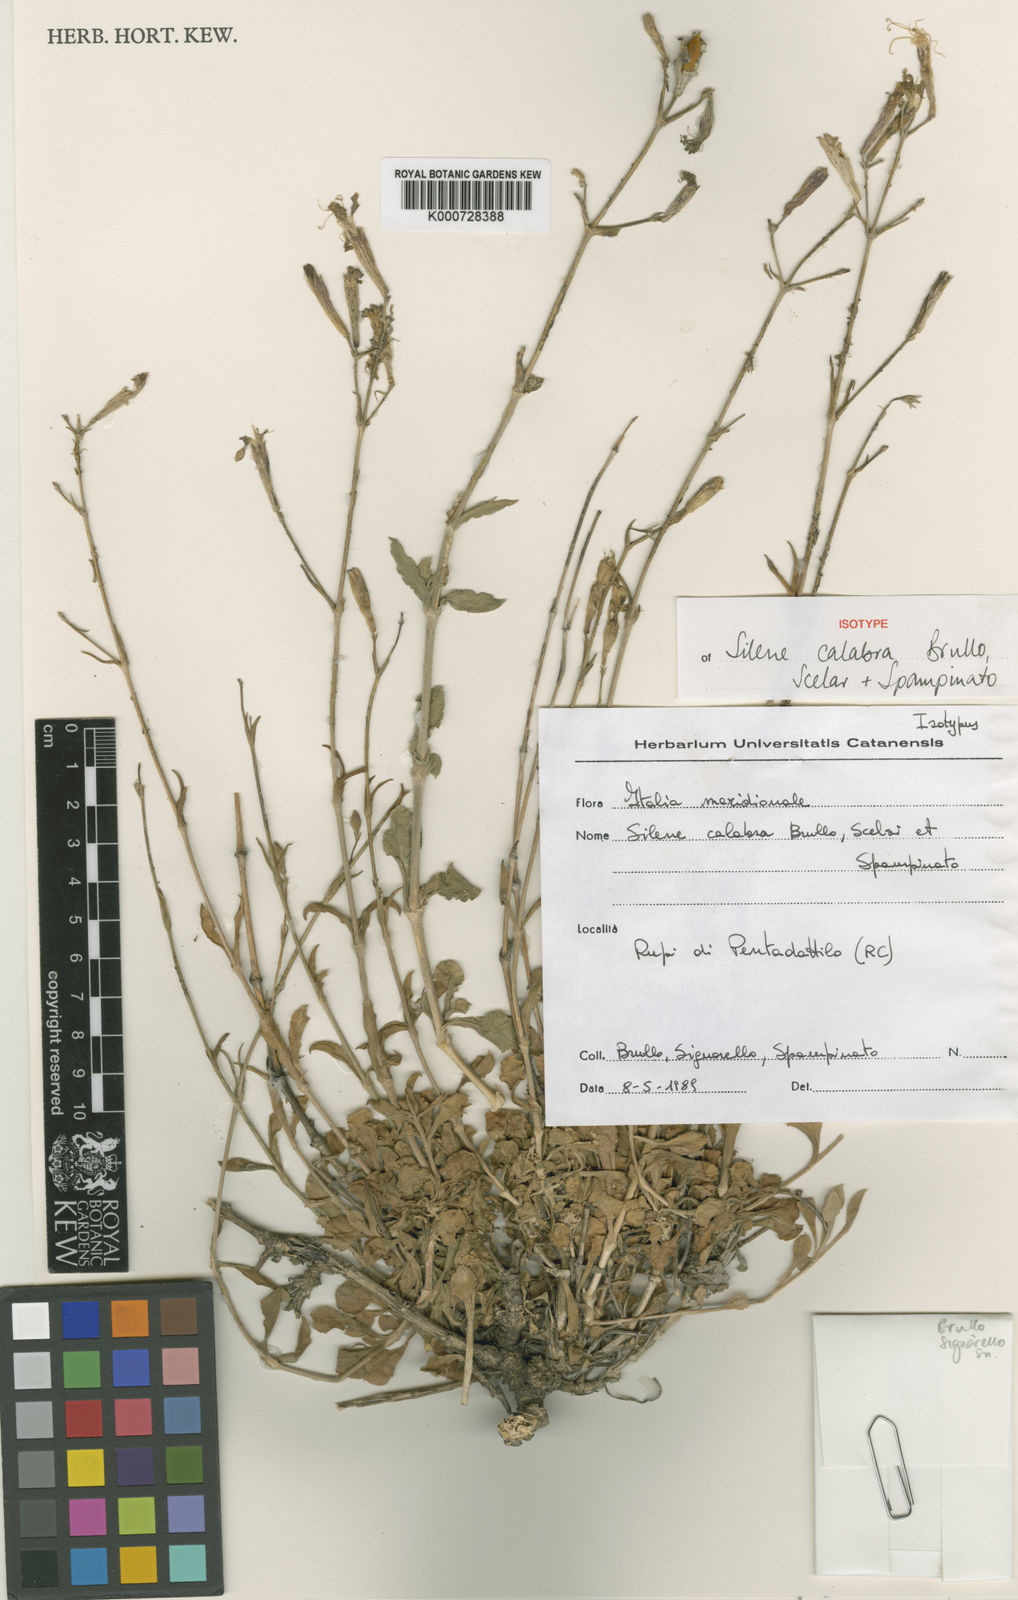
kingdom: Plantae
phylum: Tracheophyta
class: Magnoliopsida
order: Caryophyllales
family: Caryophyllaceae
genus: Silene
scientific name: Silene calabra
